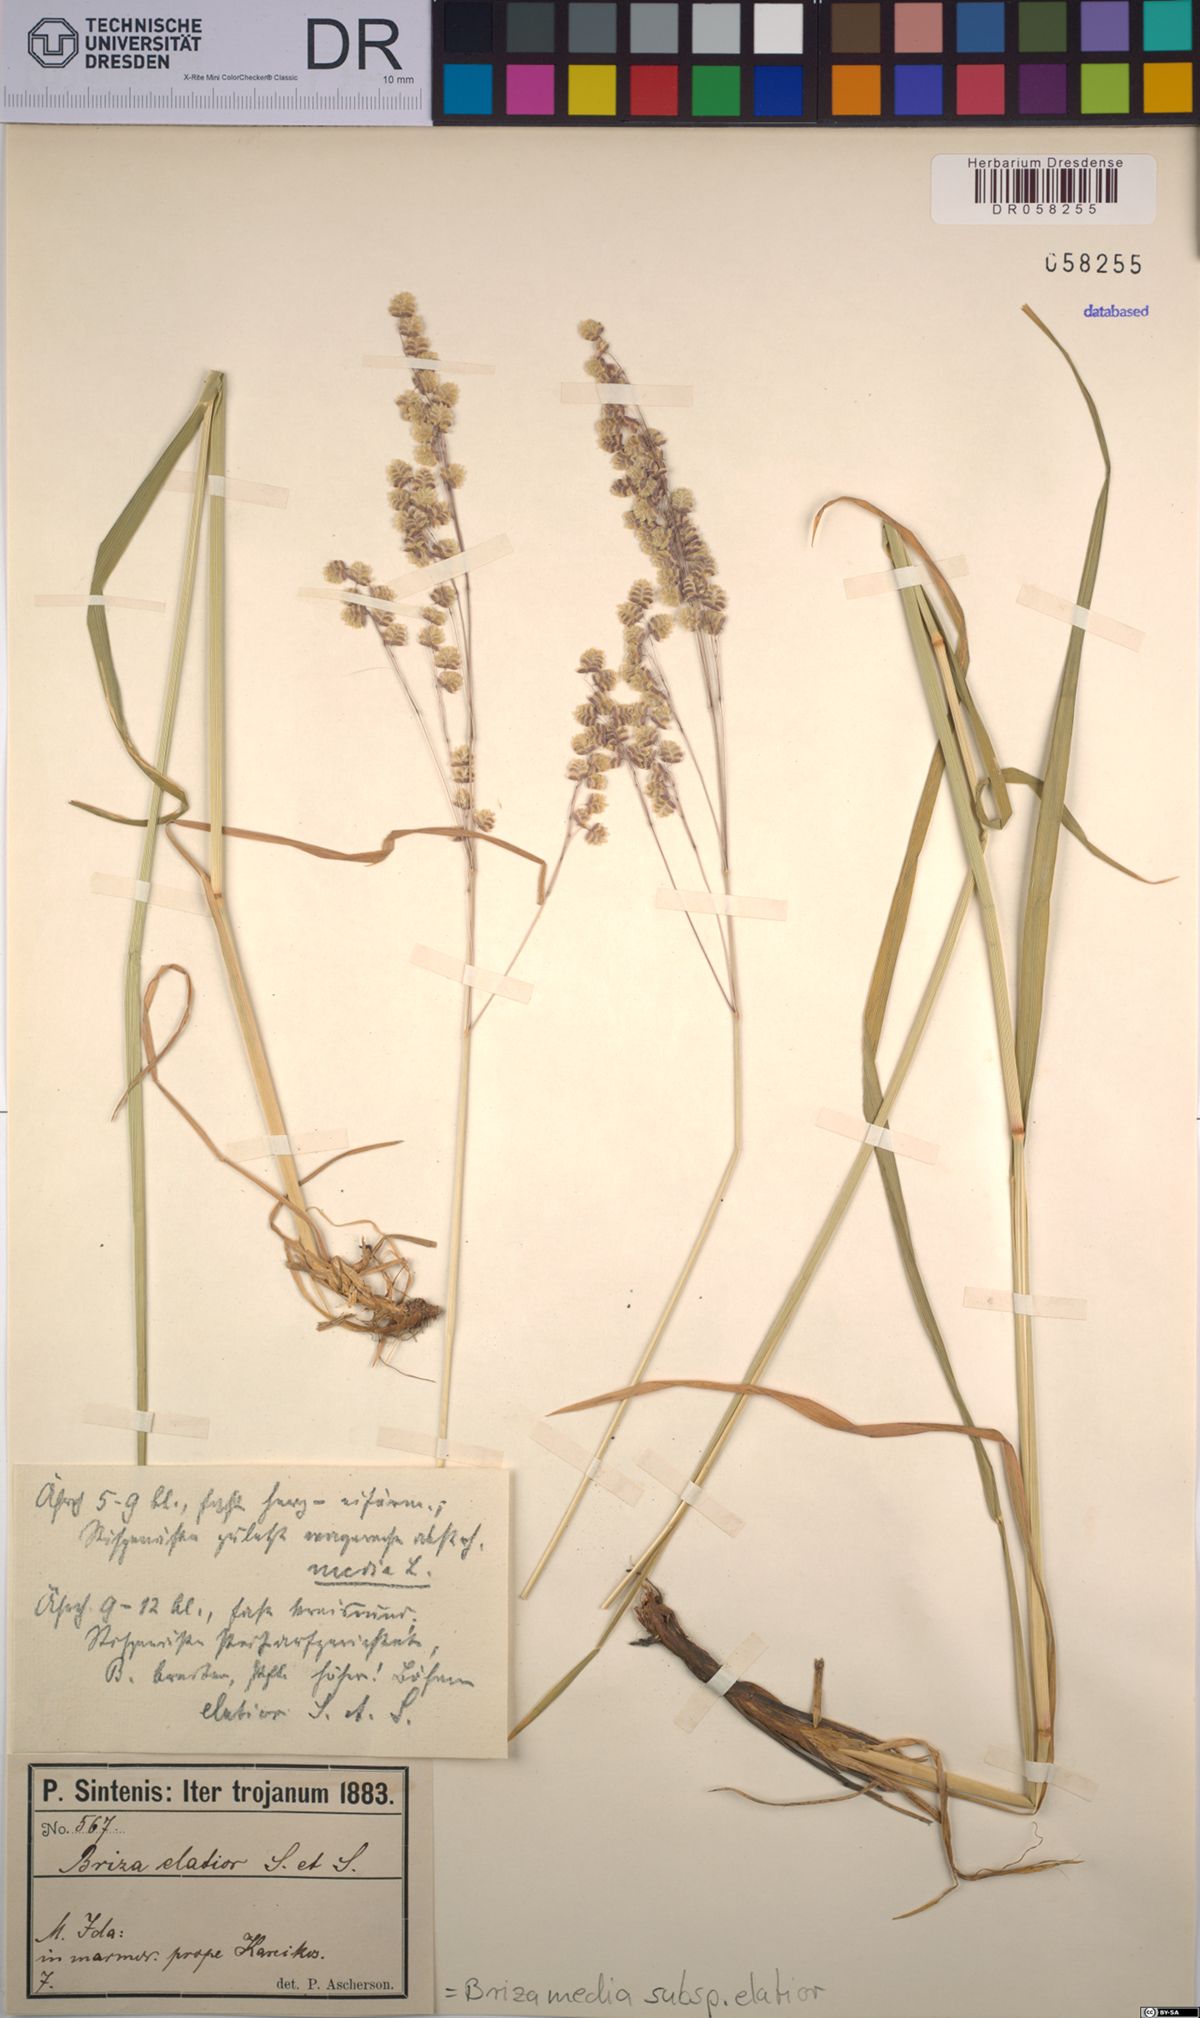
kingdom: Plantae
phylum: Tracheophyta
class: Liliopsida
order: Poales
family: Poaceae
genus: Briza
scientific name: Briza media
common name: Quaking grass
